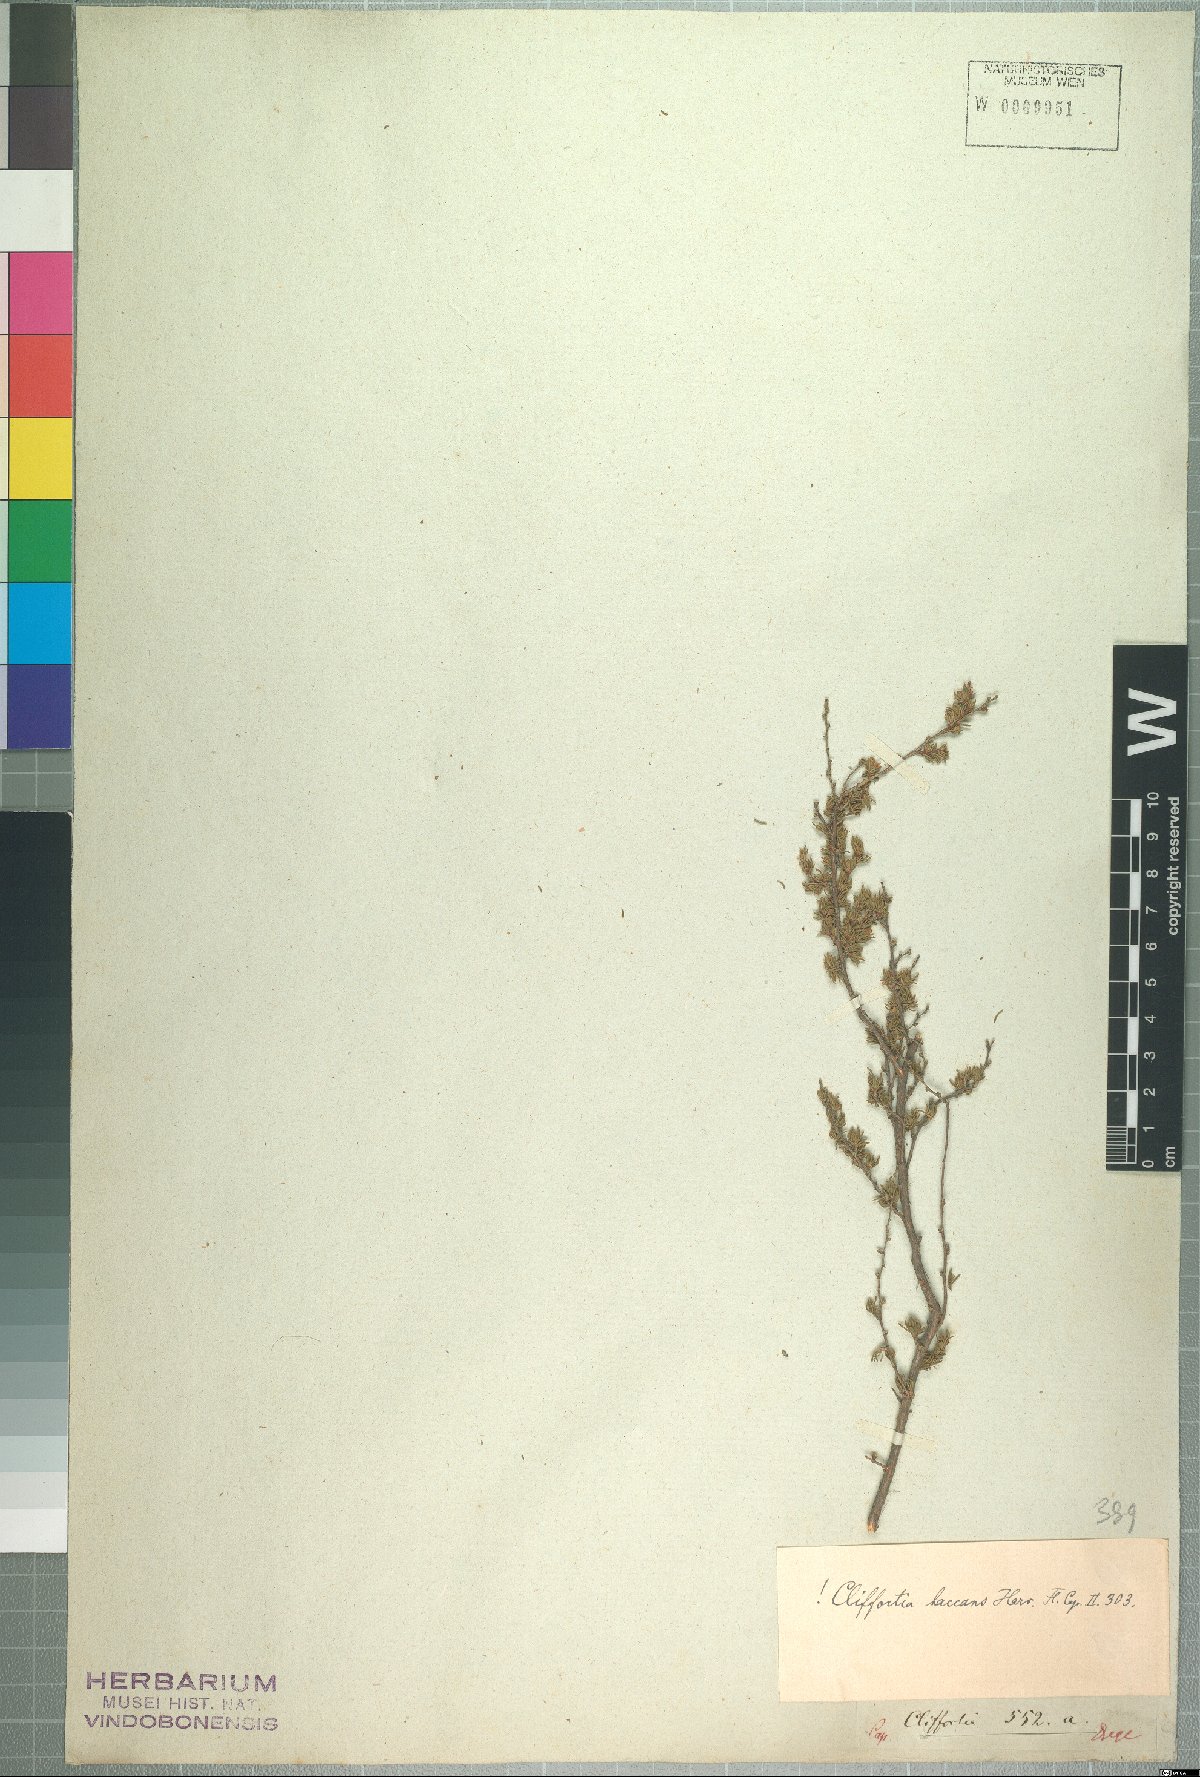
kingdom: Plantae
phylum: Tracheophyta
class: Magnoliopsida
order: Rosales
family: Rosaceae
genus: Cliffortia
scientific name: Cliffortia baccans
